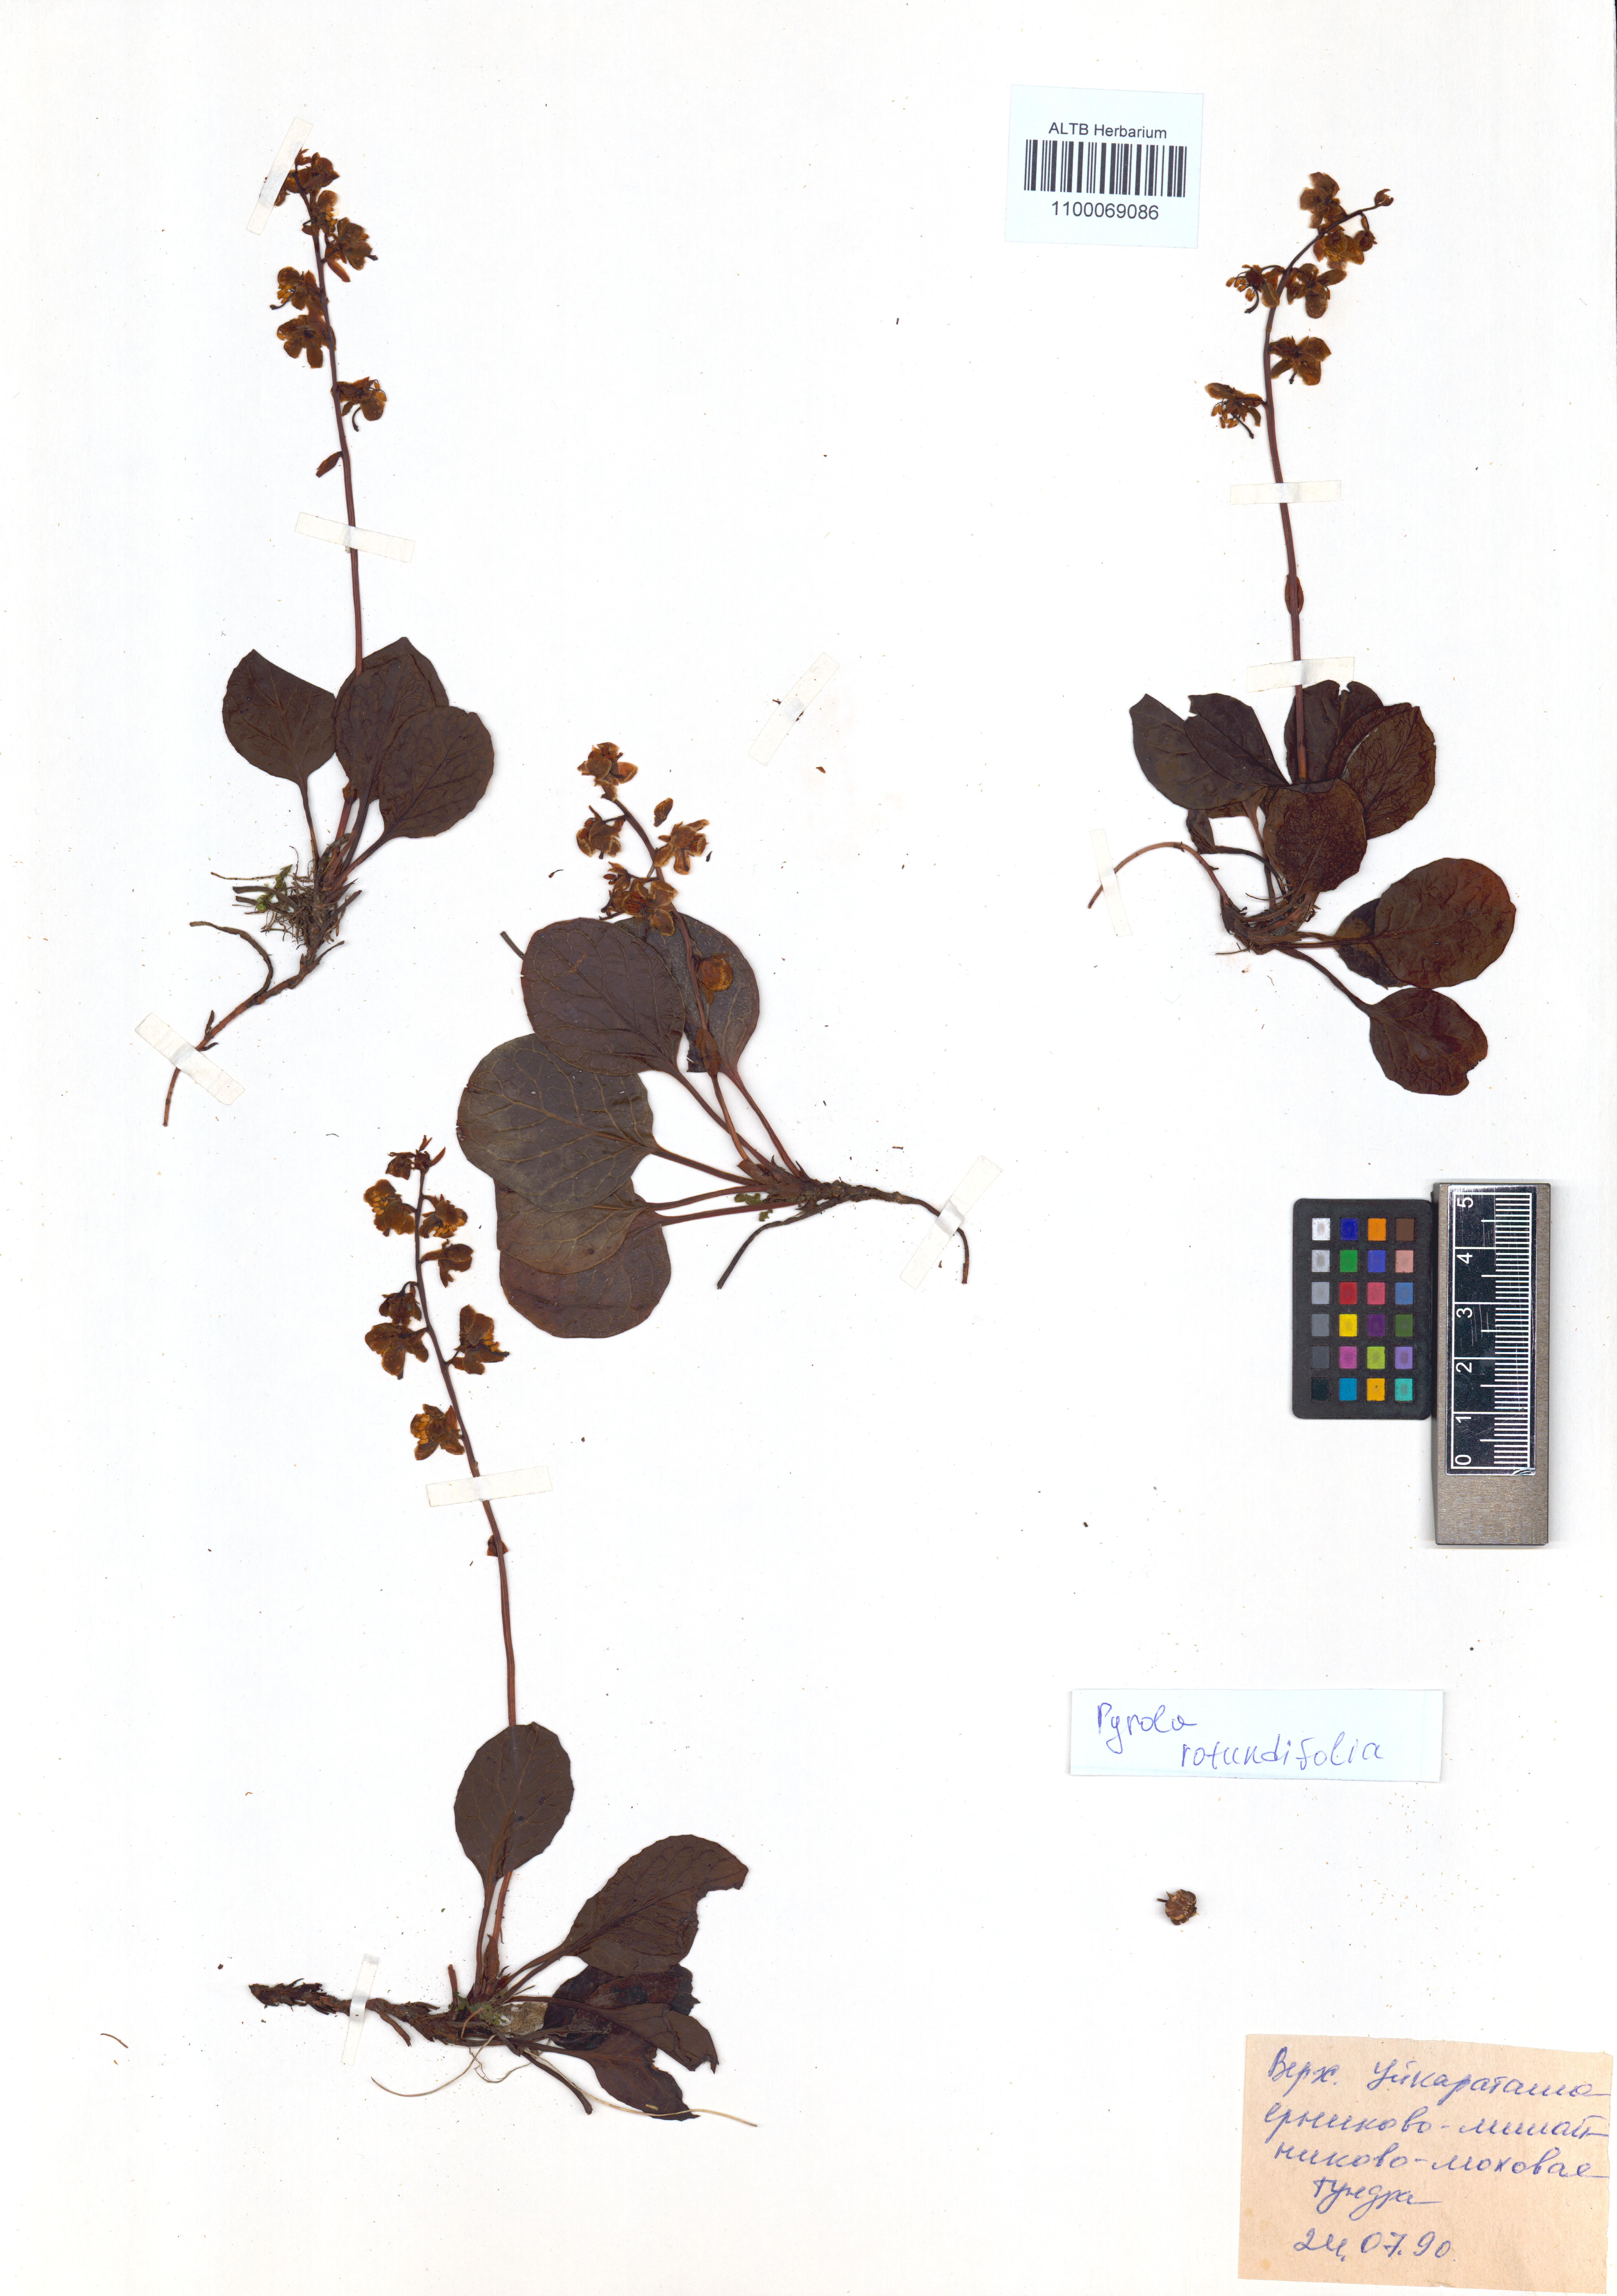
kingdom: Plantae
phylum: Tracheophyta
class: Magnoliopsida
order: Ericales
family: Ericaceae
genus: Pyrola
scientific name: Pyrola rotundifolia
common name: Round-leaved wintergreen
